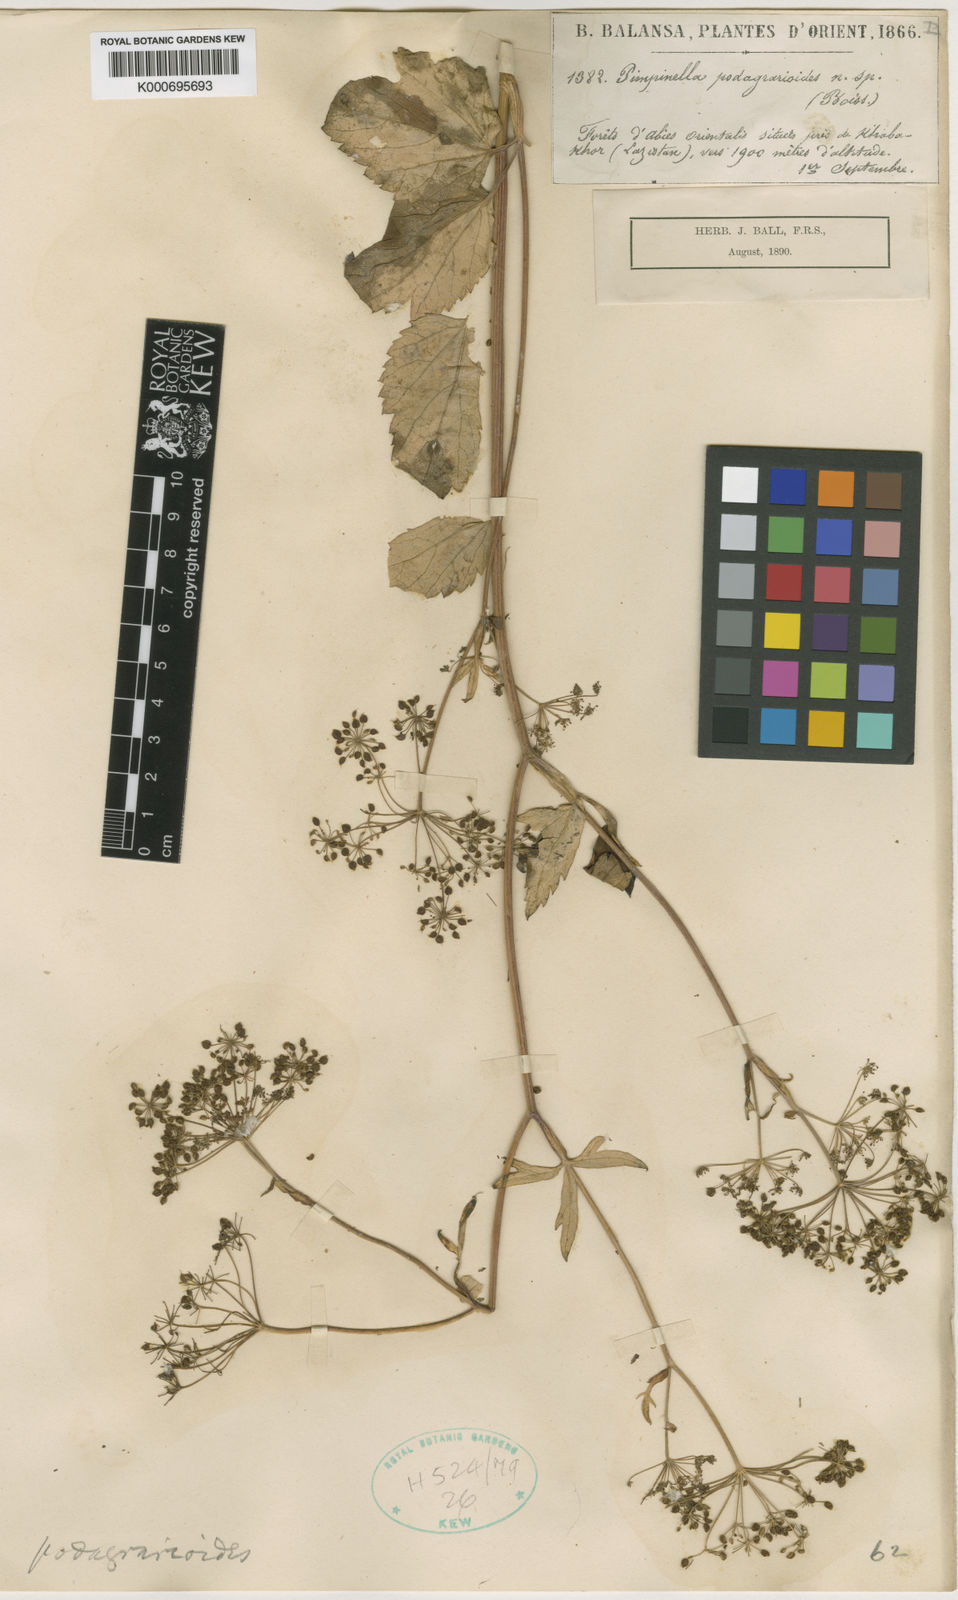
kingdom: Plantae
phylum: Tracheophyta
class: Magnoliopsida
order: Apiales
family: Apiaceae
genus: Scaligeria
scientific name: Scaligeria lazica
